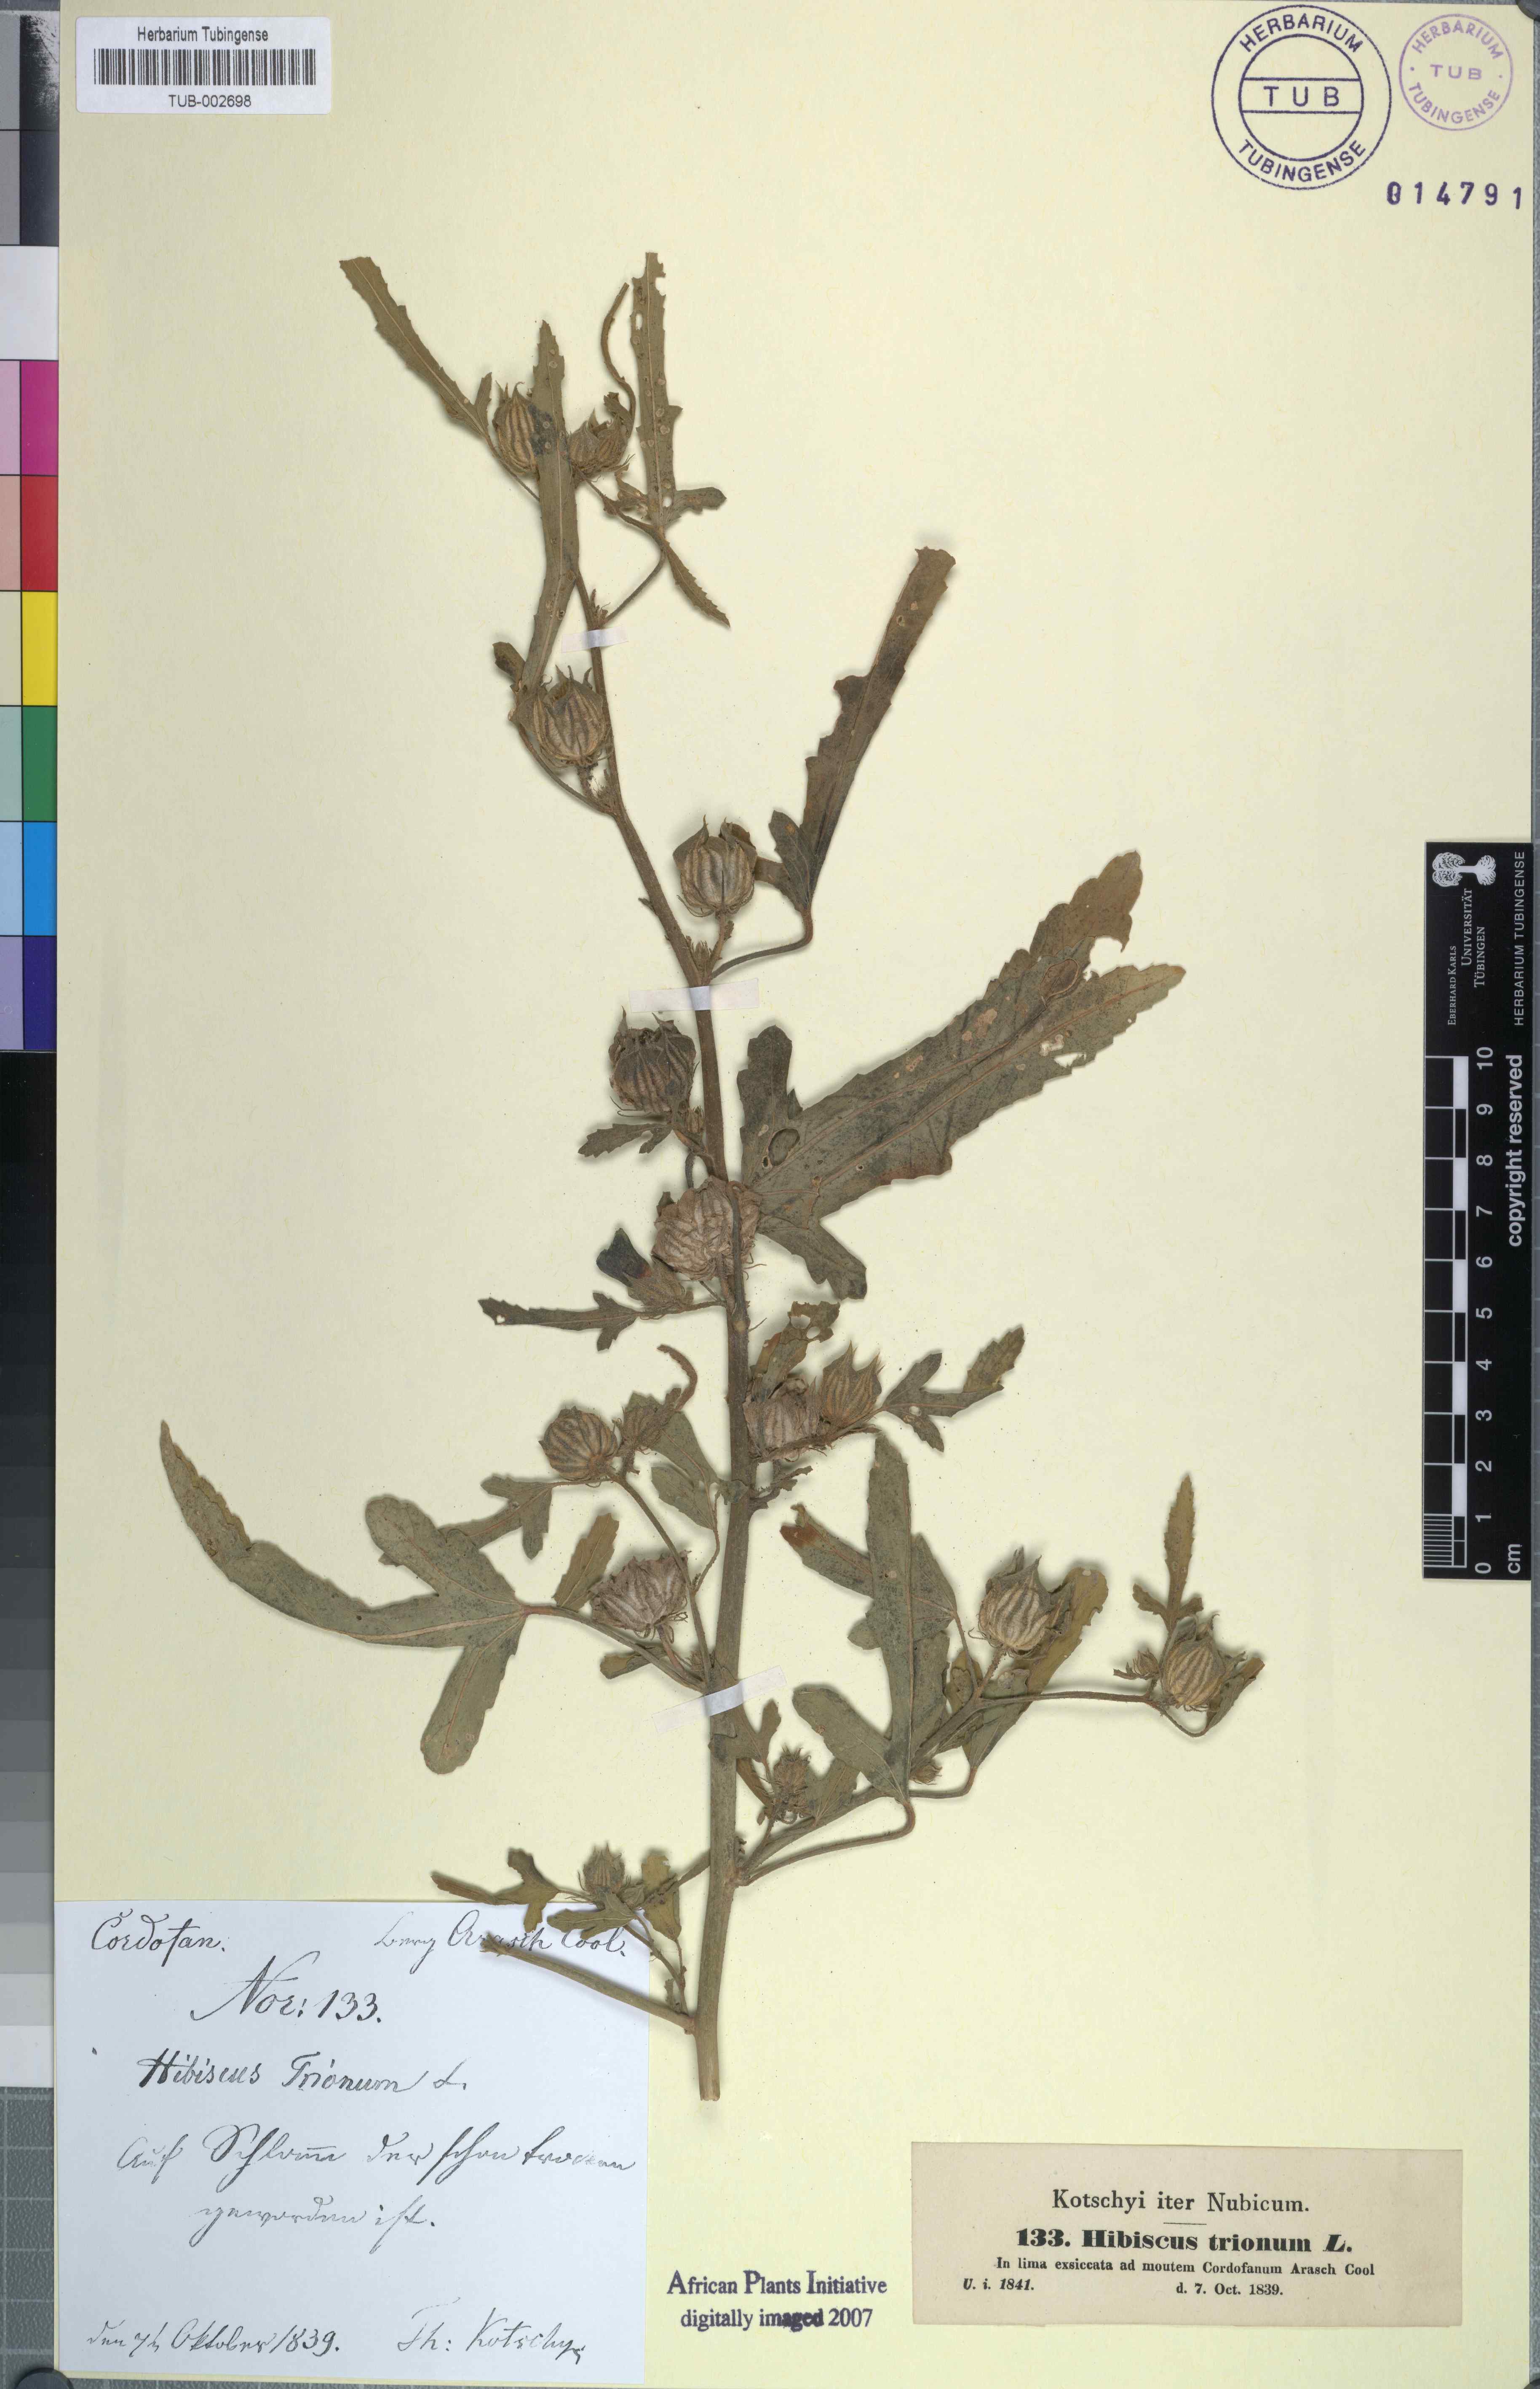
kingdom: Plantae
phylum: Tracheophyta
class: Magnoliopsida
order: Malvales
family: Malvaceae
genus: Hibiscus
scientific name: Hibiscus trionum
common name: Bladder ketmia
